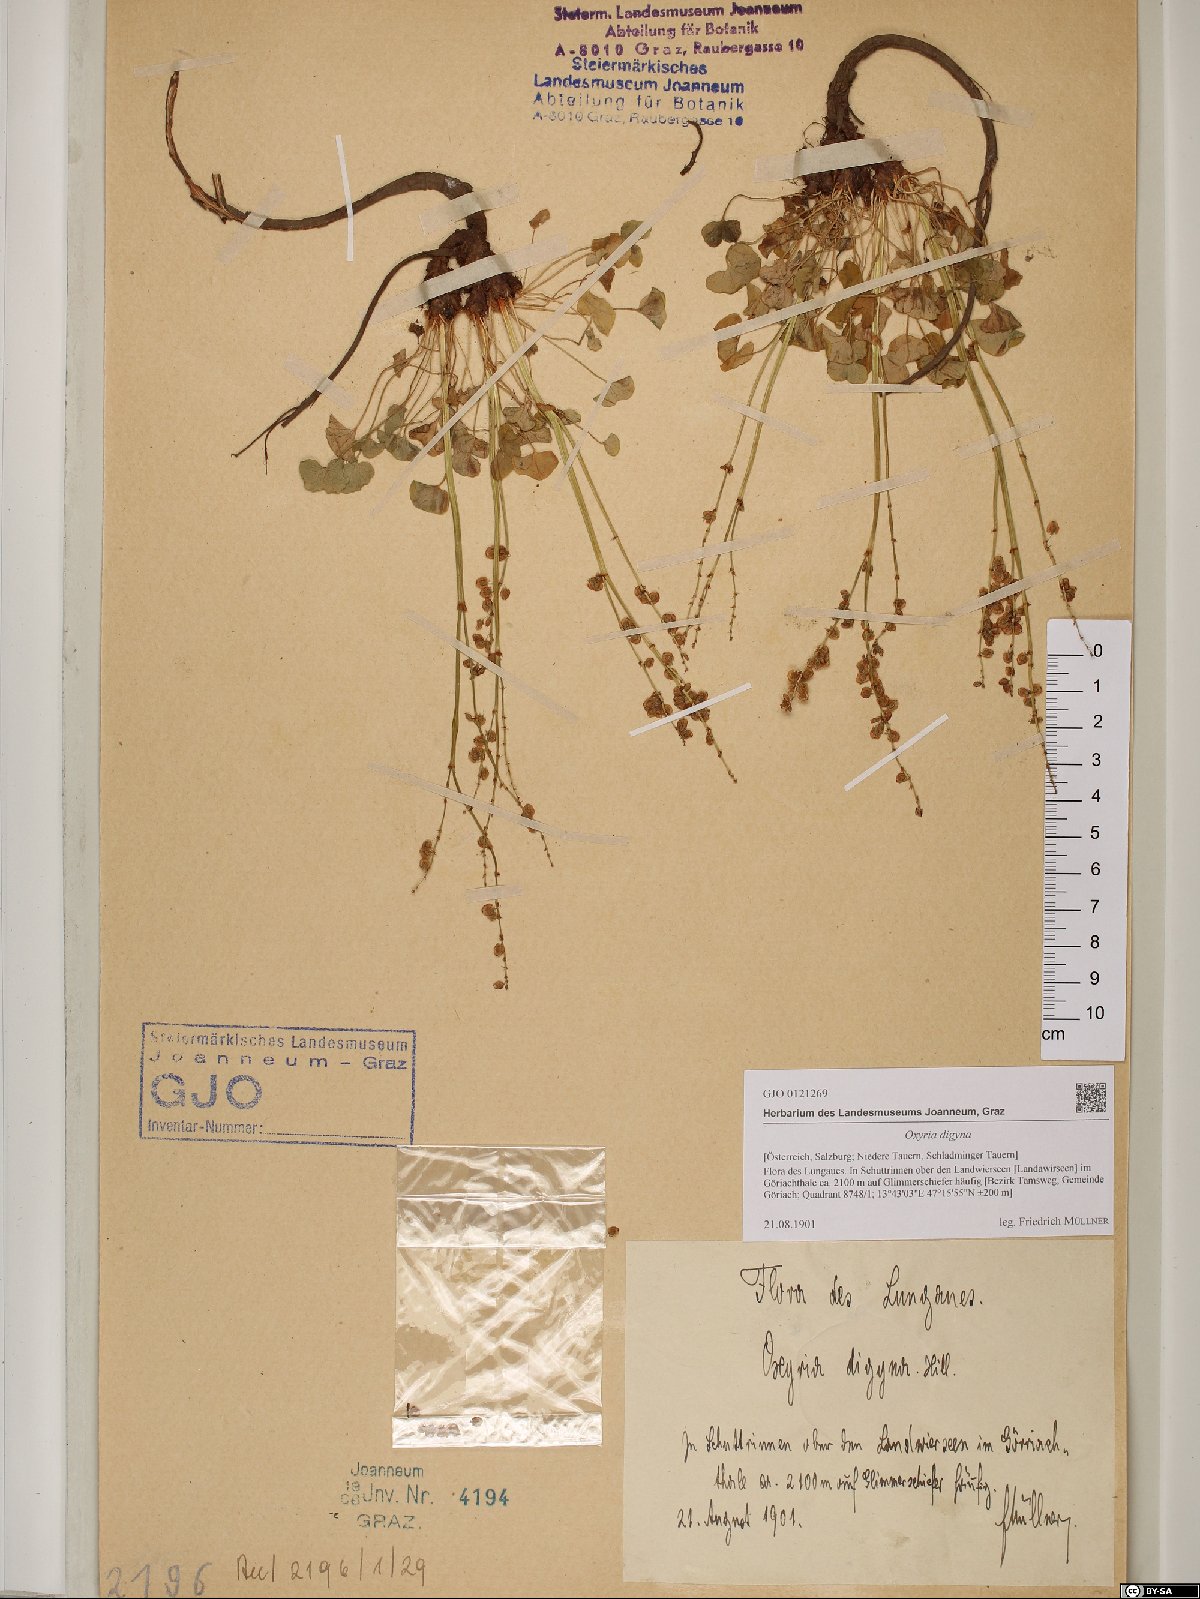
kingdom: Plantae
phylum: Tracheophyta
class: Magnoliopsida
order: Caryophyllales
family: Polygonaceae
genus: Oxyria
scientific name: Oxyria digyna
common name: Alpine mountain-sorrel
